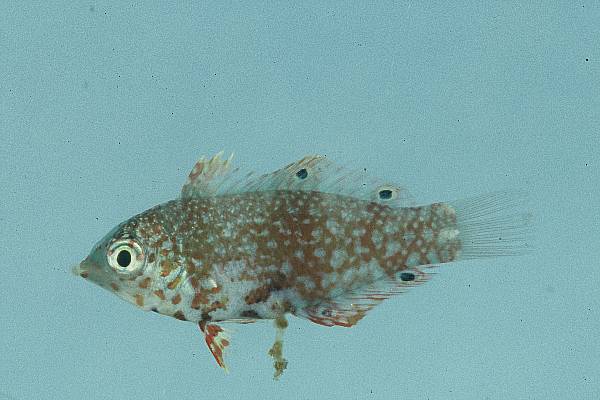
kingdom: Animalia
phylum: Chordata
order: Perciformes
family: Labridae
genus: Macropharyngodon
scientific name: Macropharyngodon bipartitus
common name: Divided wrasse
